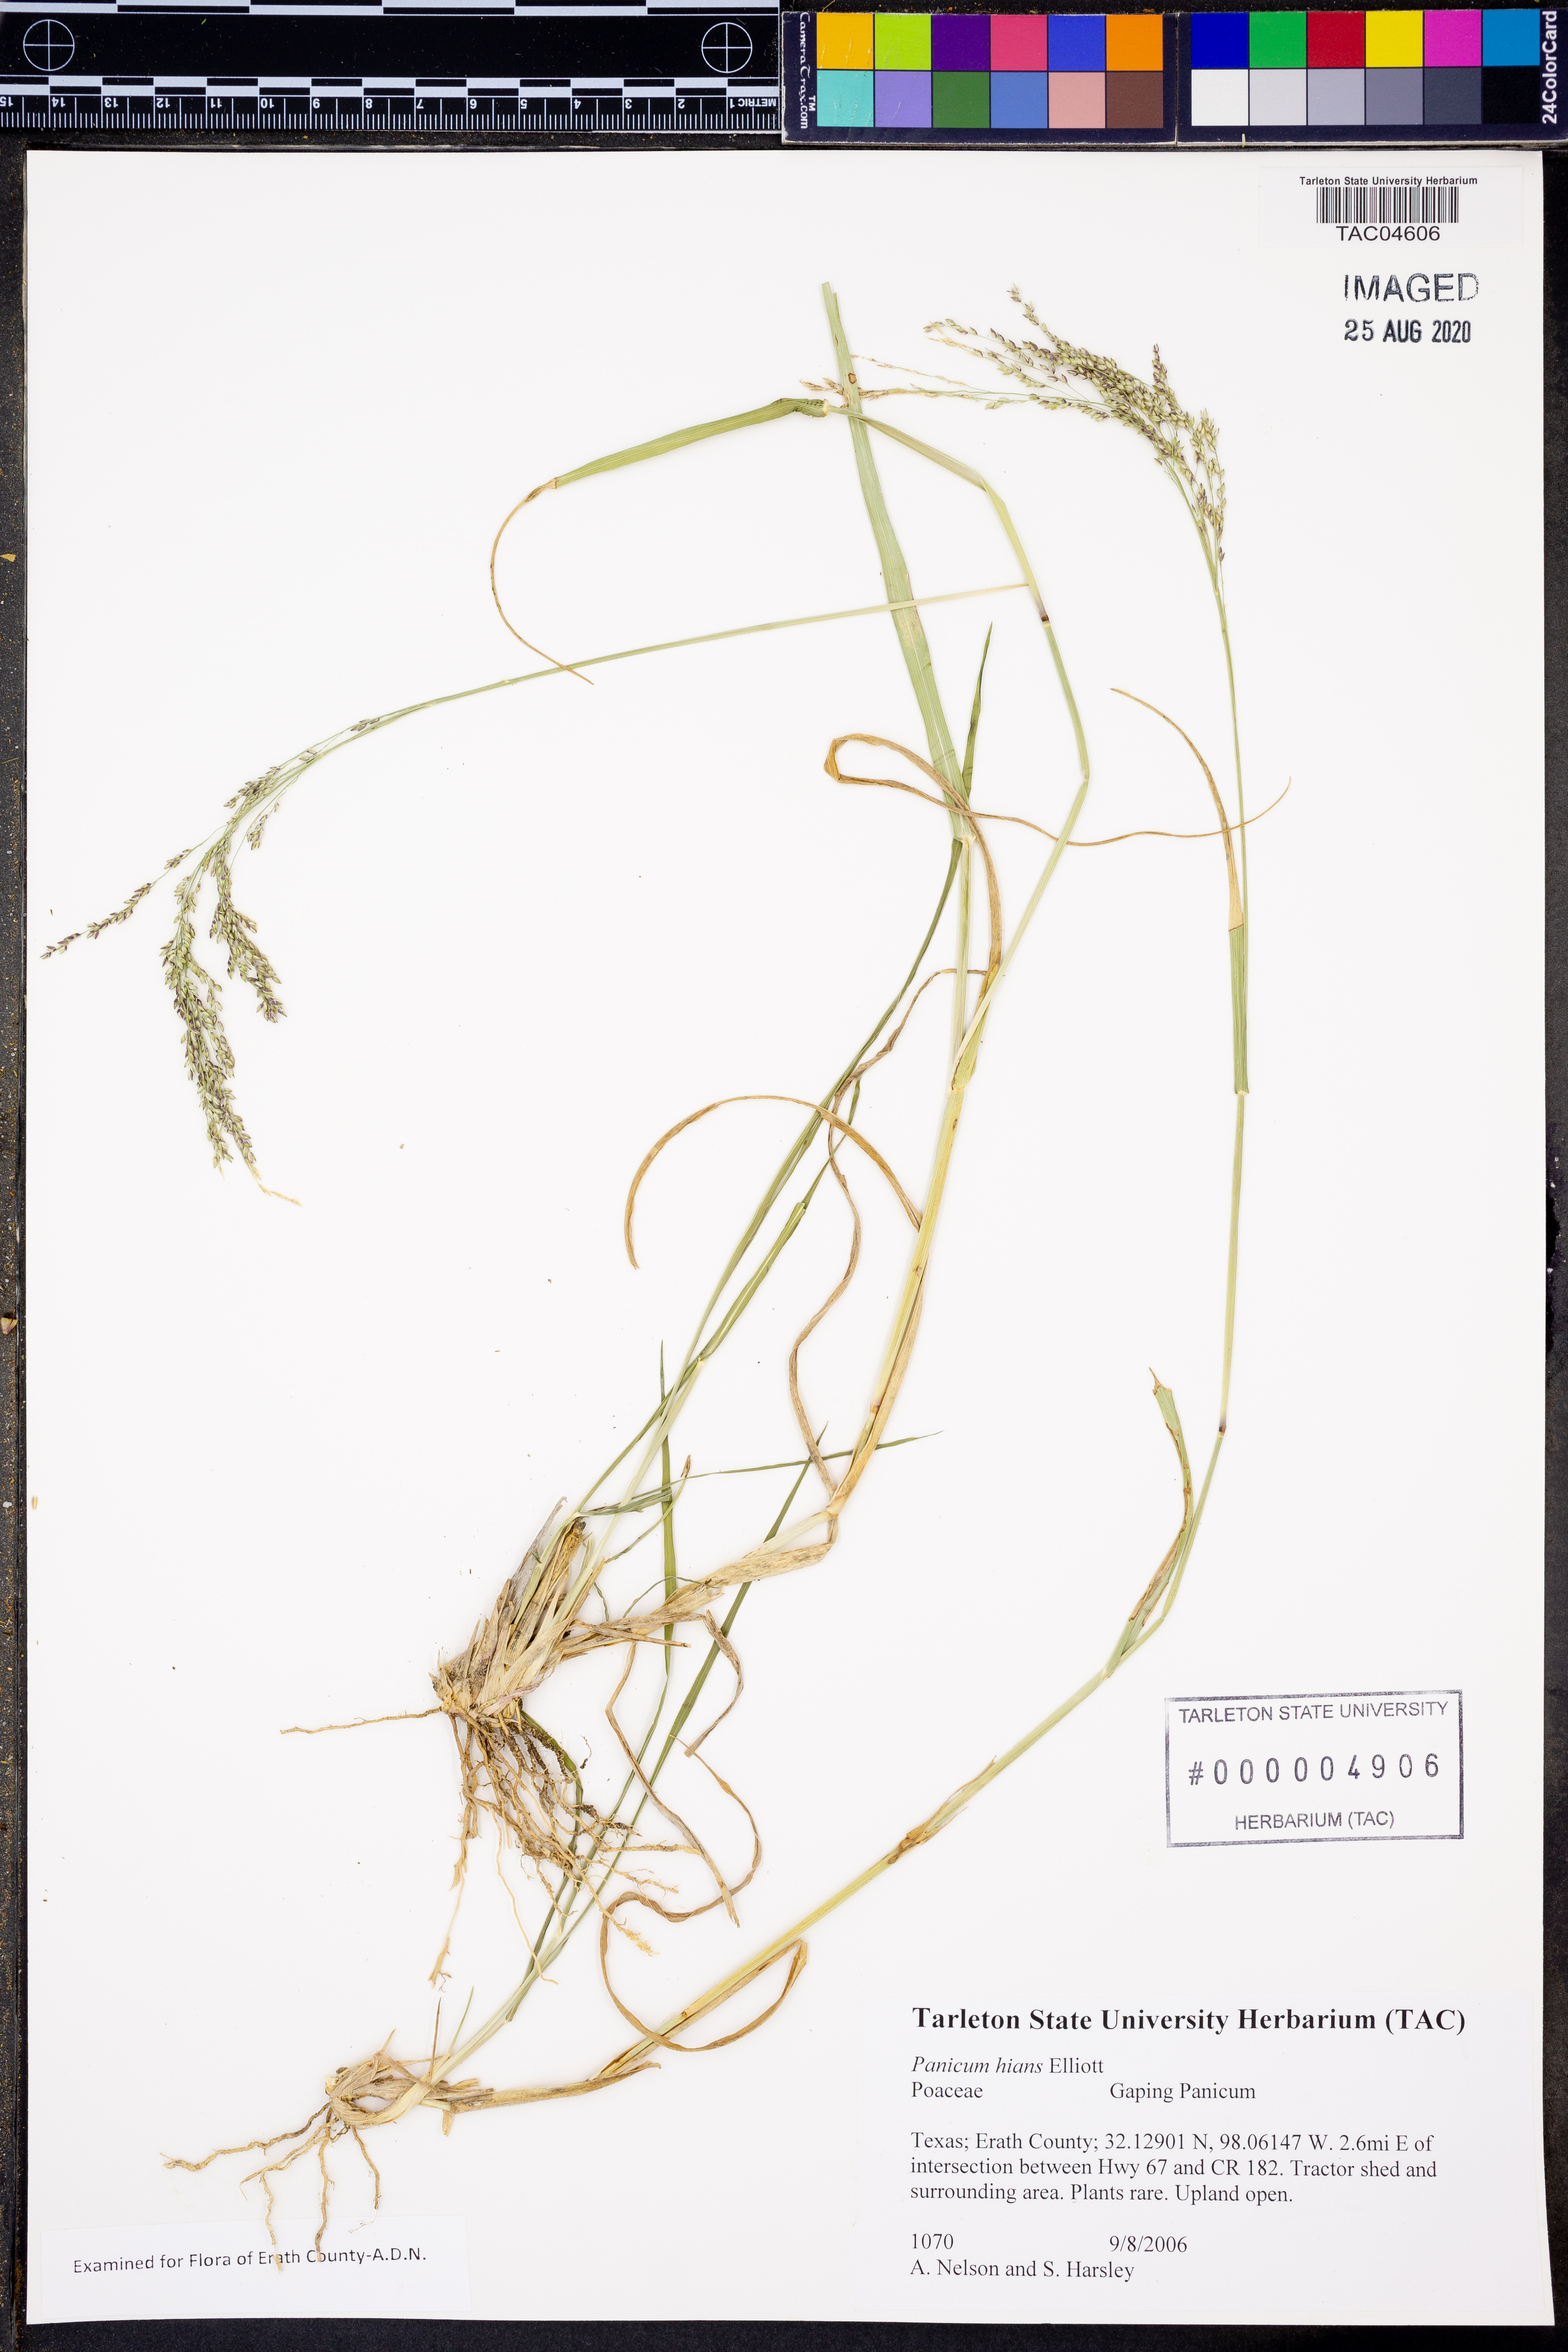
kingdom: Plantae
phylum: Tracheophyta
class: Liliopsida
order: Poales
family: Poaceae
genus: Coleataenia
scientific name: Coleataenia stenodes
